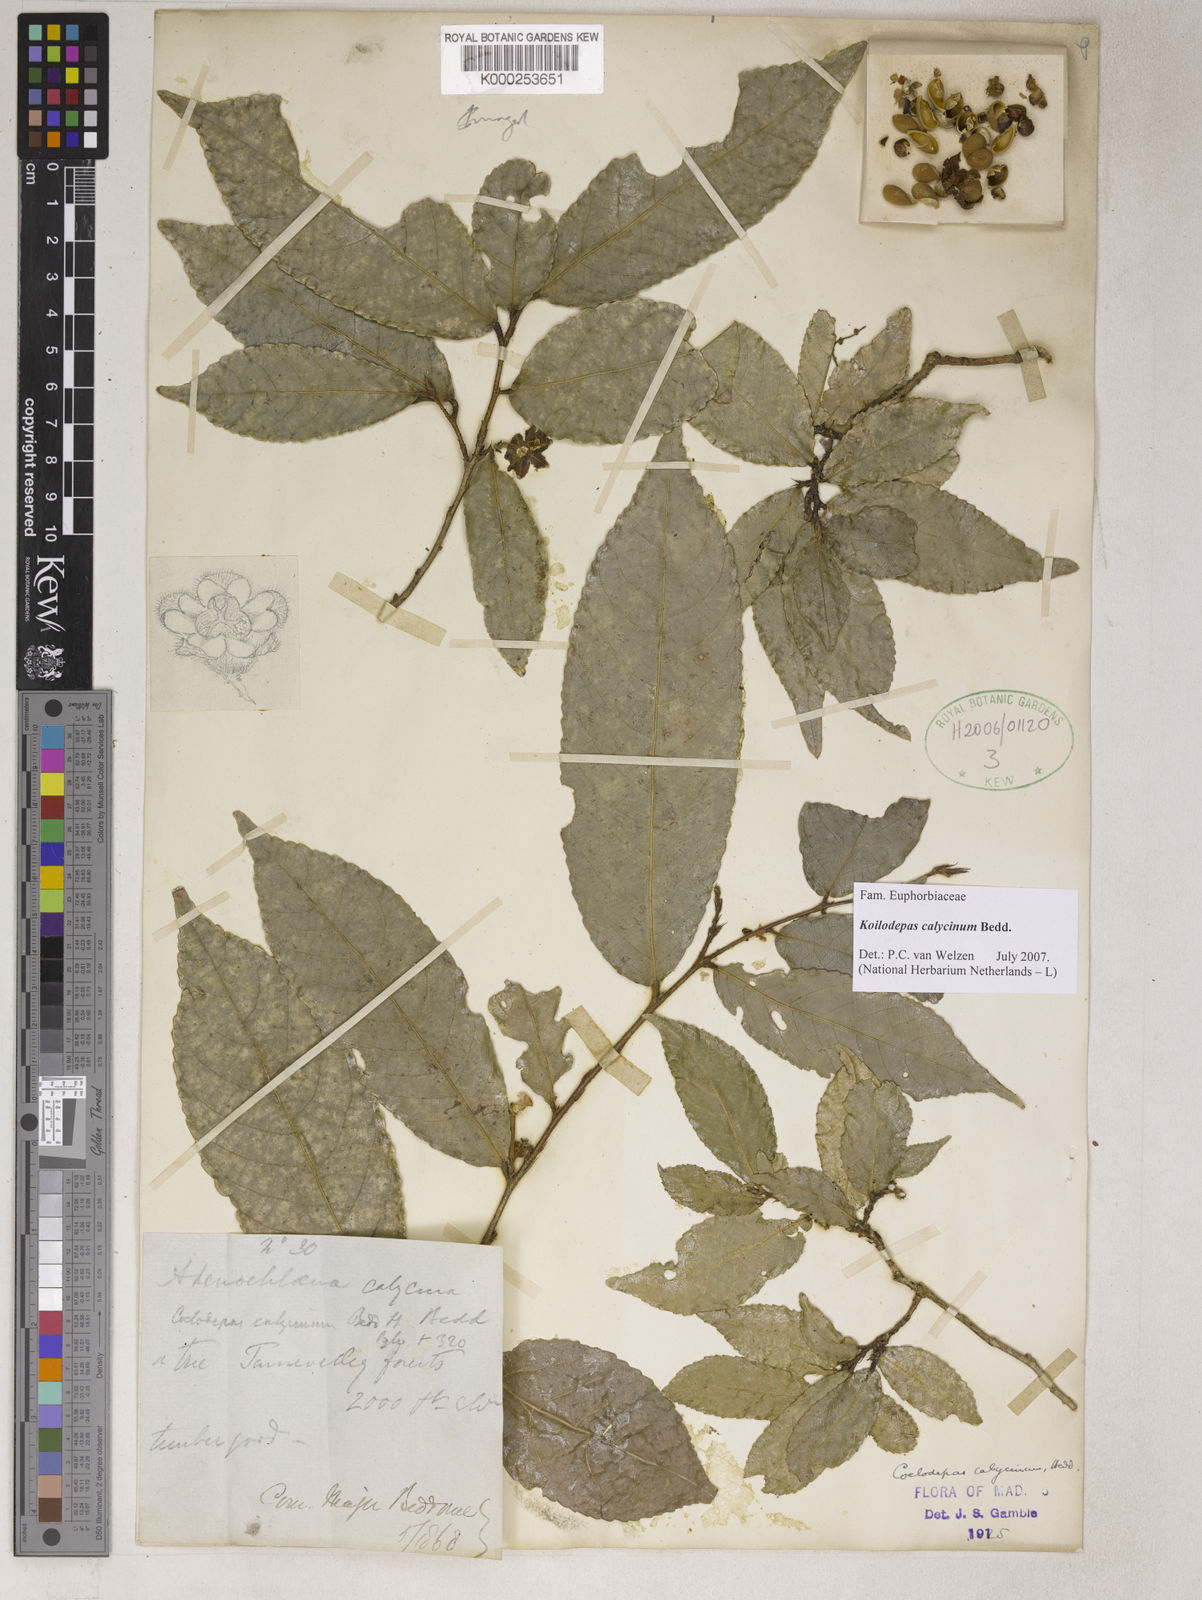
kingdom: Plantae
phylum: Tracheophyta
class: Magnoliopsida
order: Malpighiales
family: Euphorbiaceae
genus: Koilodepas
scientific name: Koilodepas calycinum
